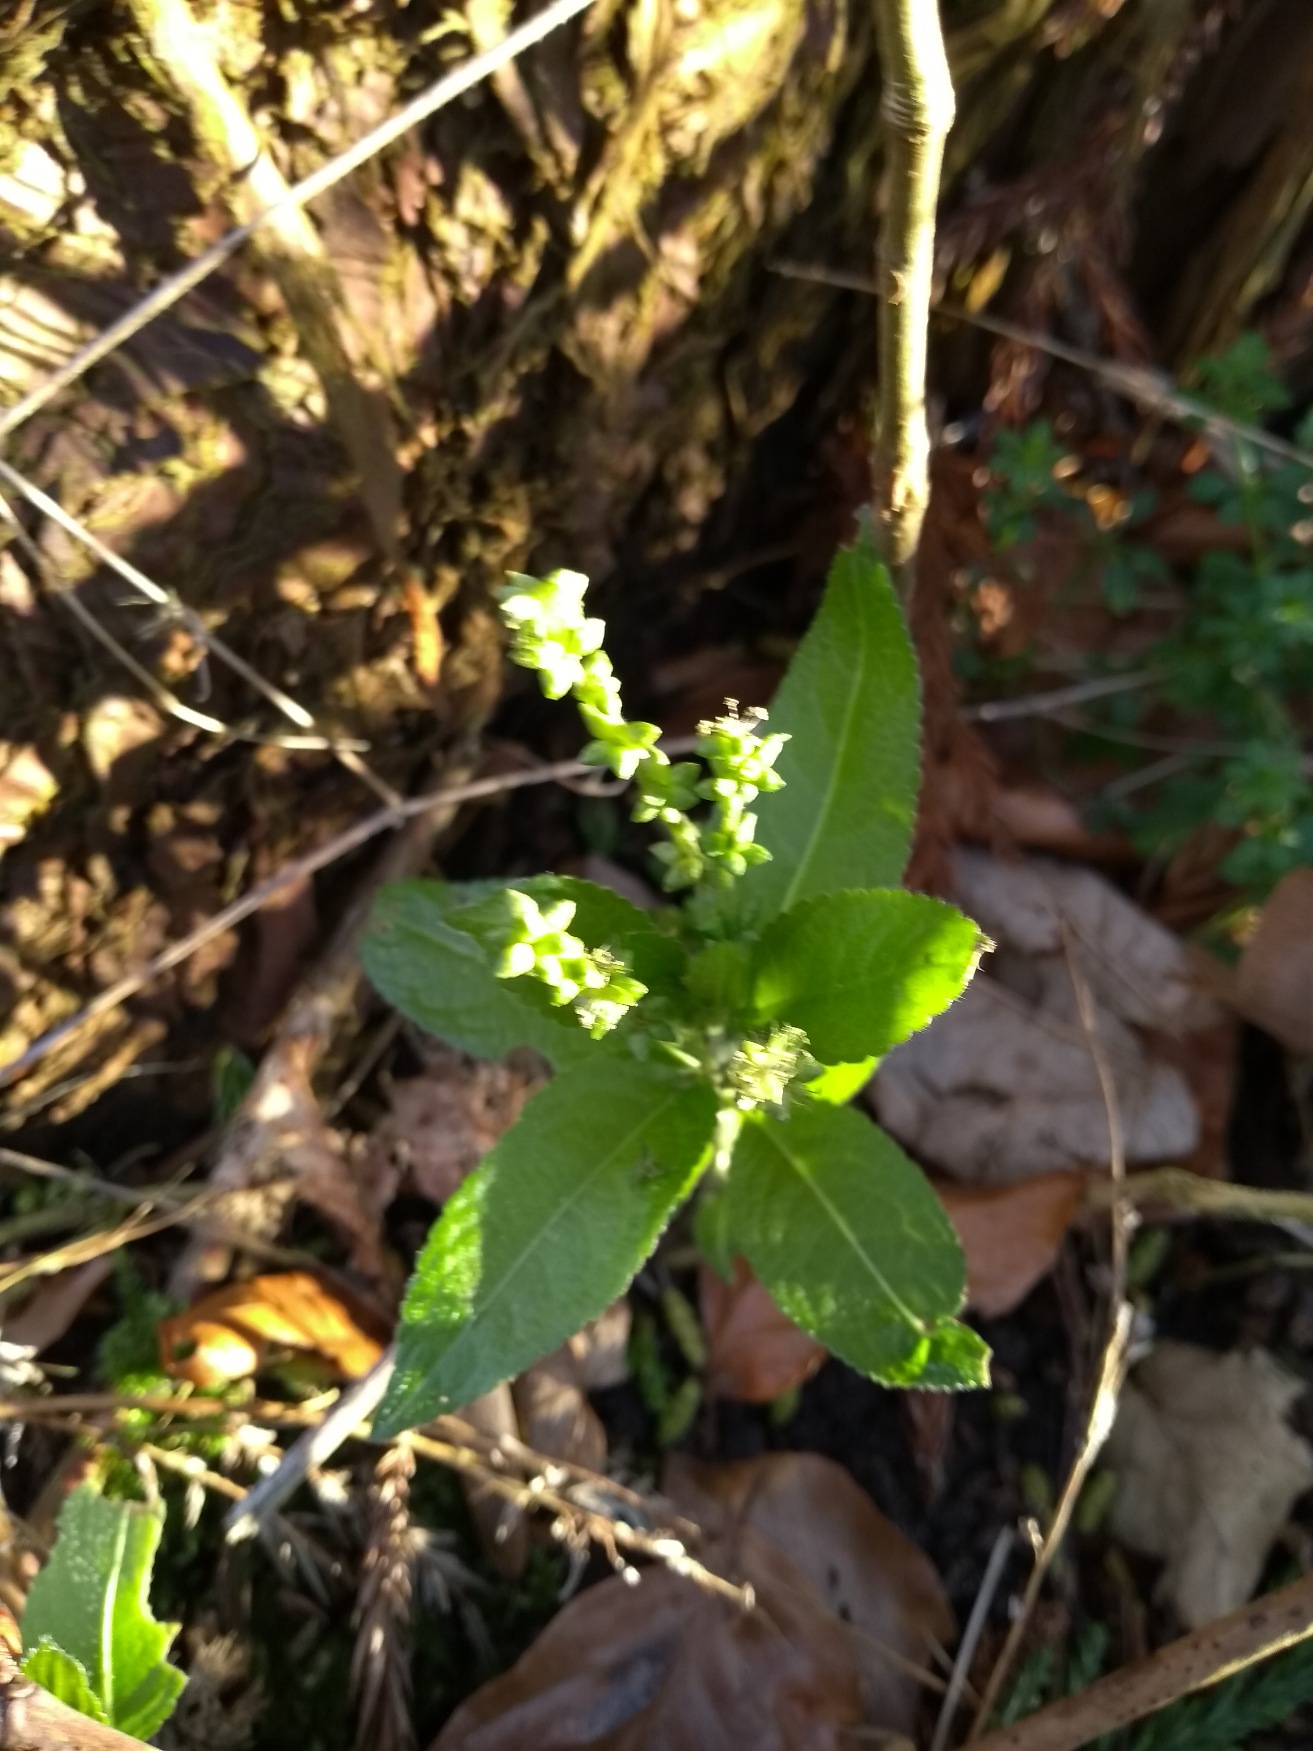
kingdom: Plantae
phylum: Tracheophyta
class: Magnoliopsida
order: Malpighiales
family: Euphorbiaceae
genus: Mercurialis
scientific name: Mercurialis perennis
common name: Almindelig bingelurt
